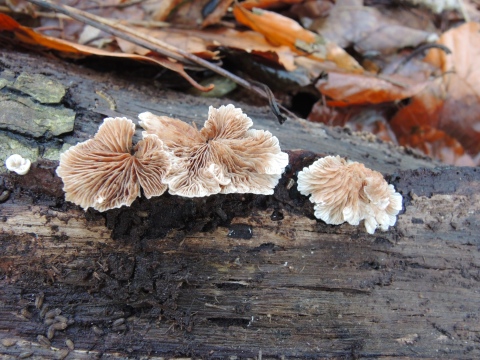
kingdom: Fungi
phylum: Basidiomycota
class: Agaricomycetes
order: Agaricales
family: Crepidotaceae
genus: Crepidotus
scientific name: Crepidotus variabilis
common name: forskelligformet muslingesvamp
